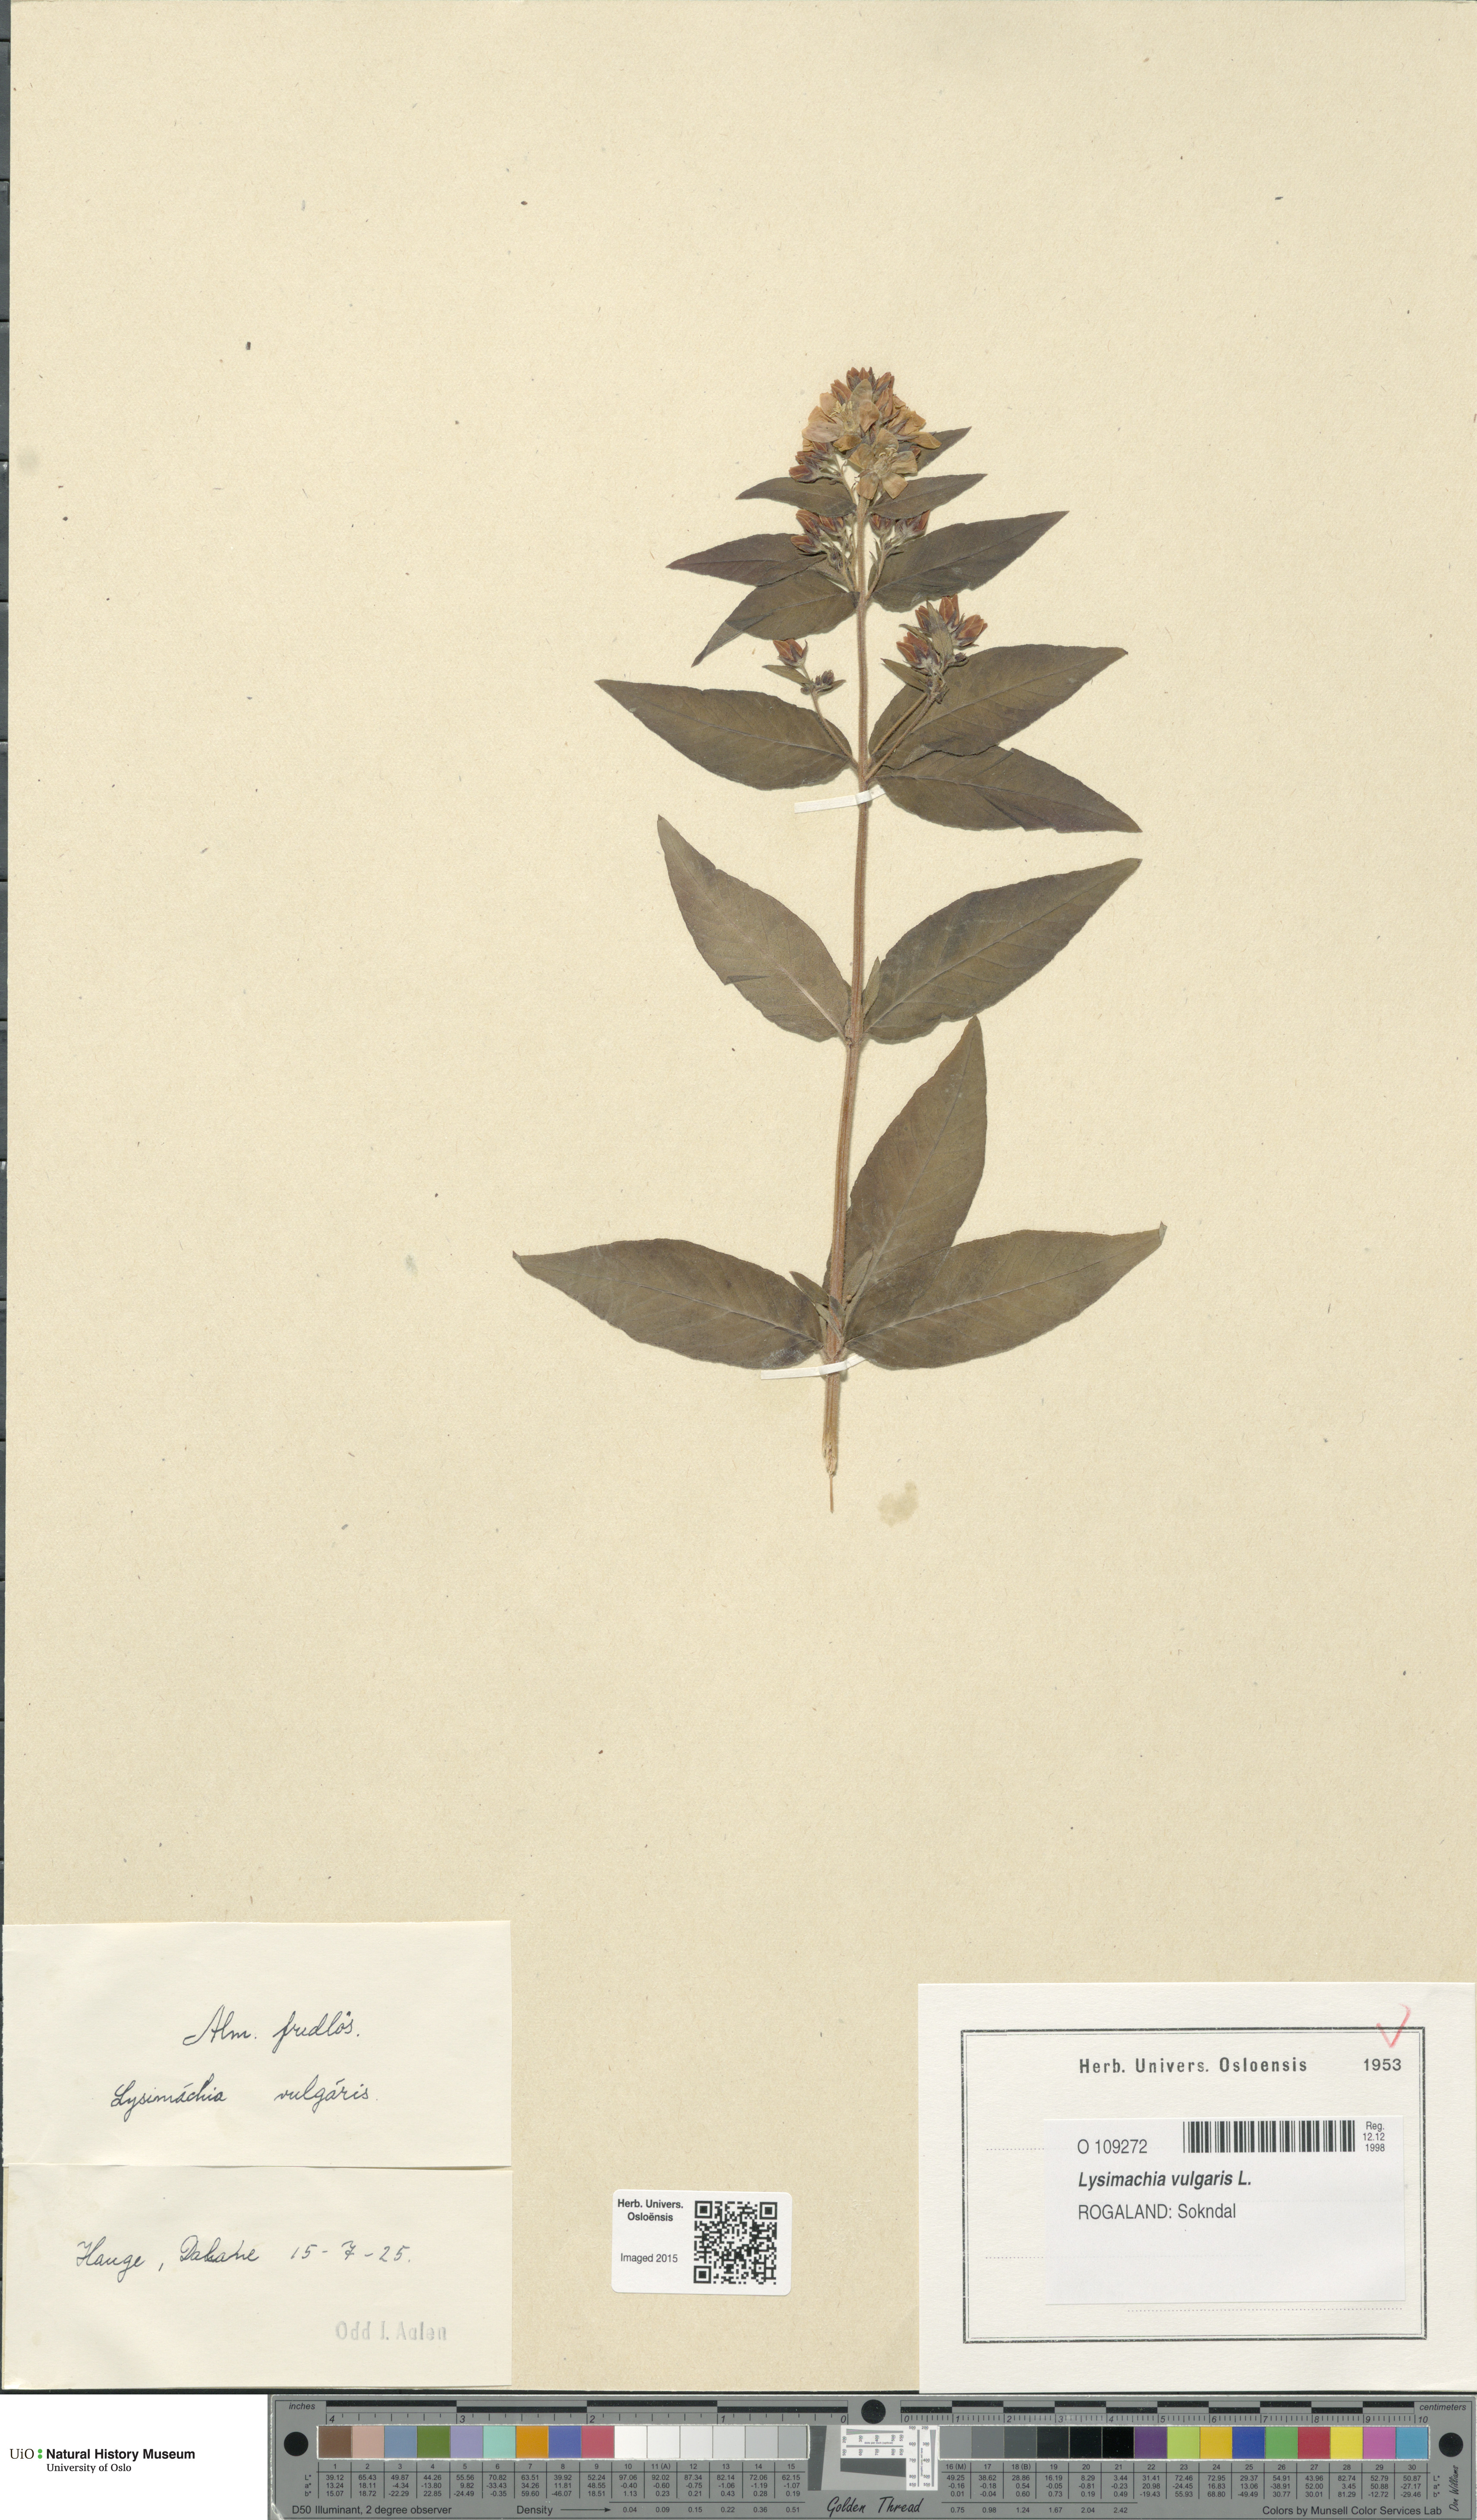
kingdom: Plantae
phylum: Tracheophyta
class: Magnoliopsida
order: Ericales
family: Primulaceae
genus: Lysimachia
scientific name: Lysimachia vulgaris
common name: Yellow loosestrife
